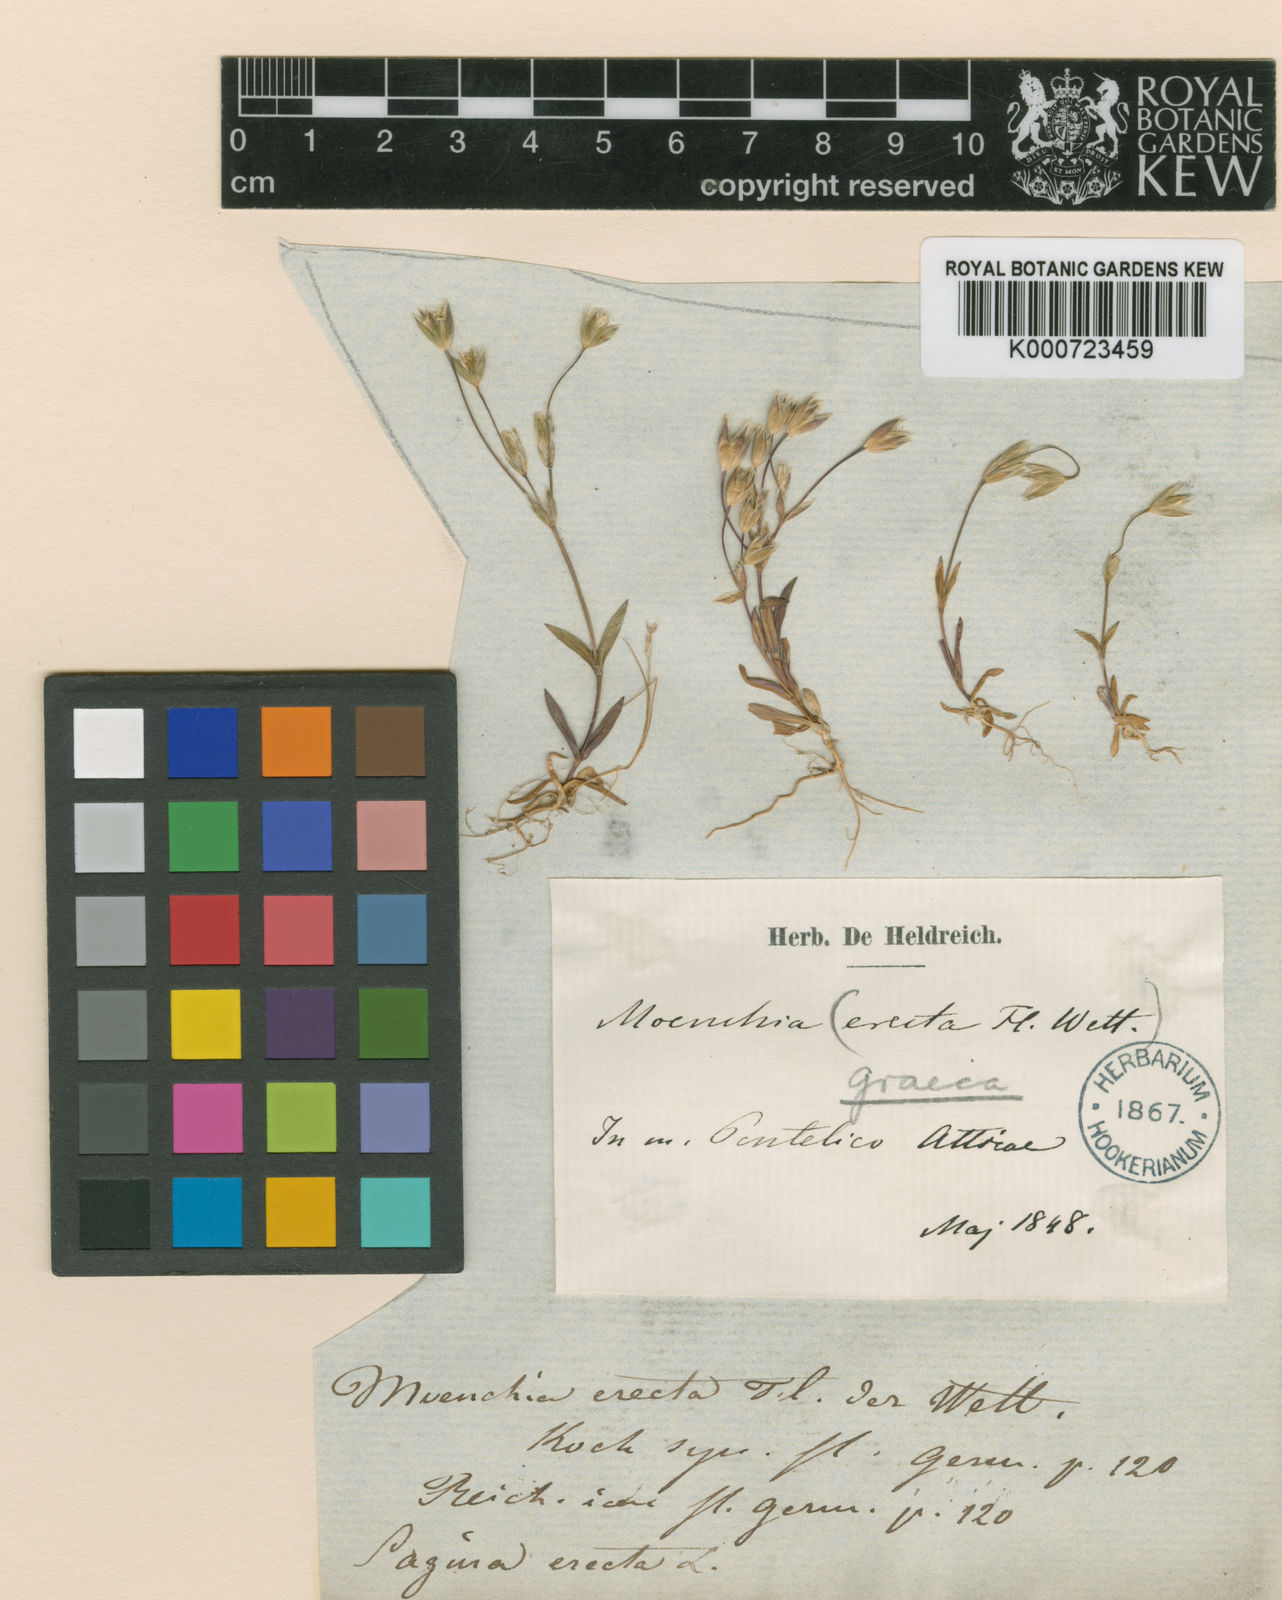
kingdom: Plantae
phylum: Tracheophyta
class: Magnoliopsida
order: Caryophyllales
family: Caryophyllaceae
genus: Moenchia
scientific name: Moenchia graeca
